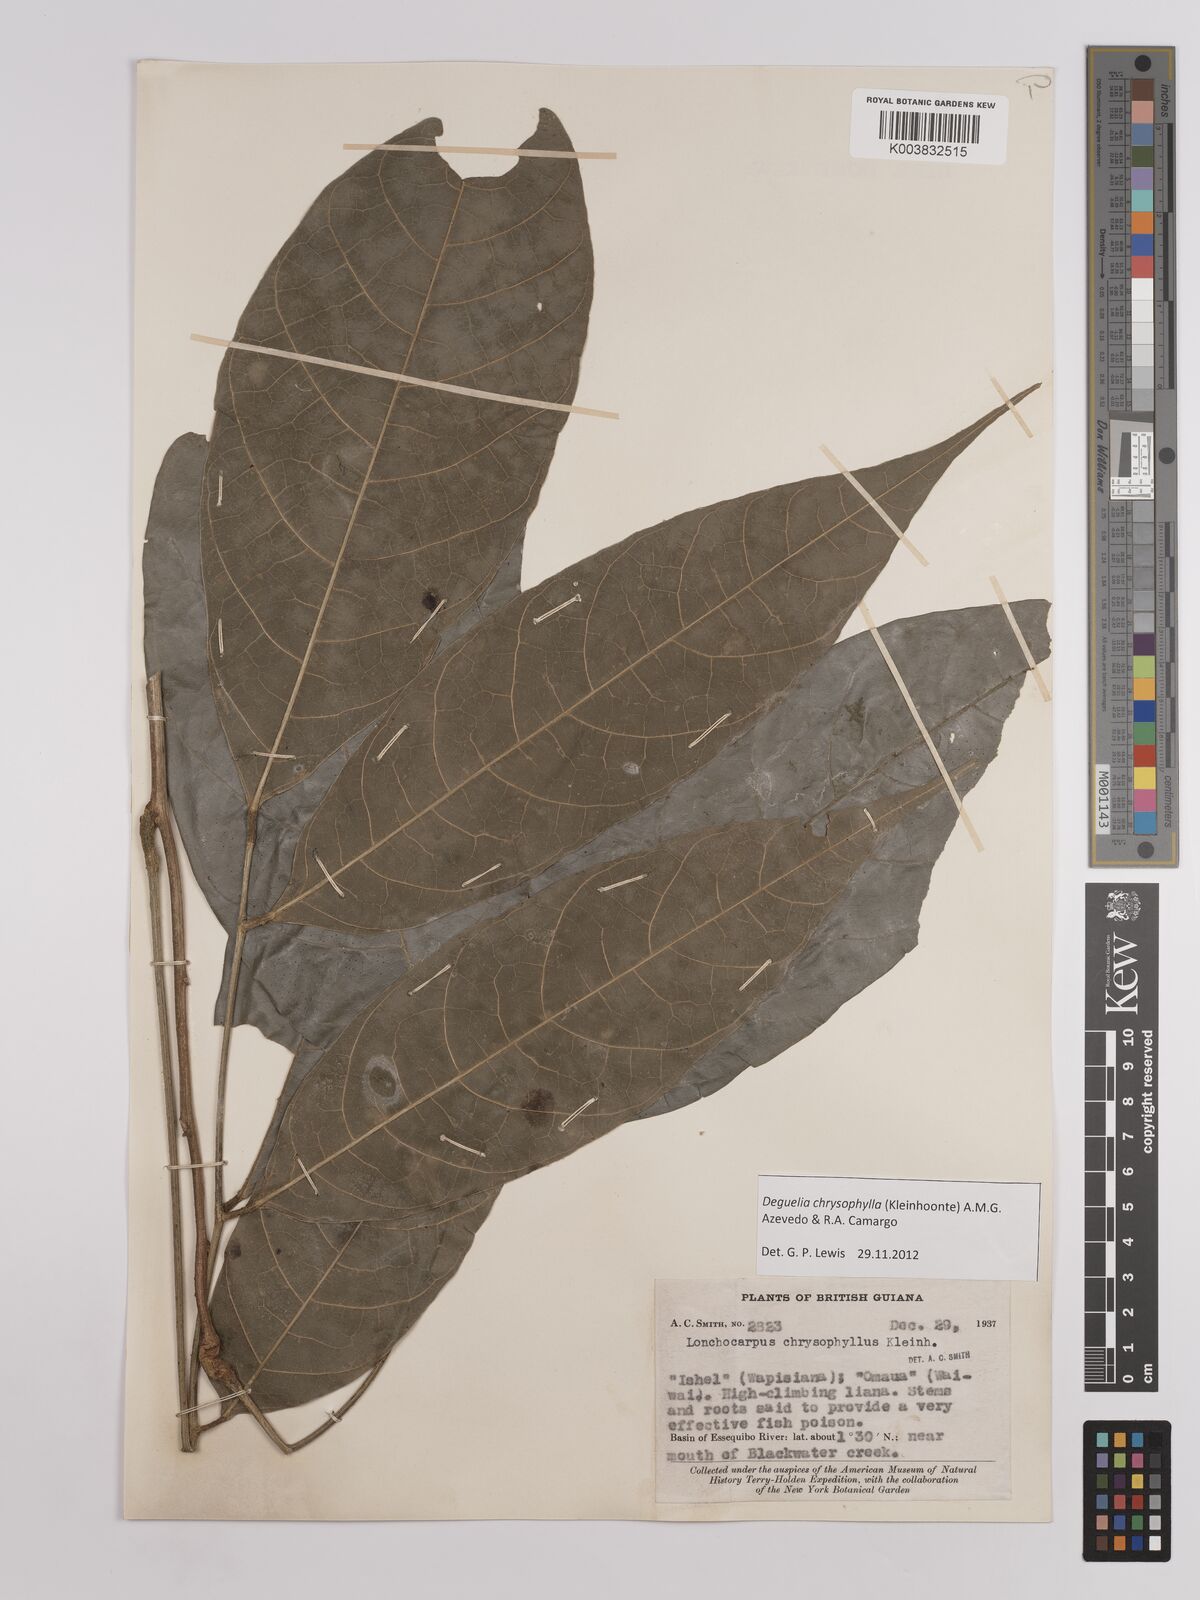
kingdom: Plantae
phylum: Tracheophyta
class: Magnoliopsida
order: Fabales
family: Fabaceae
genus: Deguelia
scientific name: Deguelia chrysophylla
